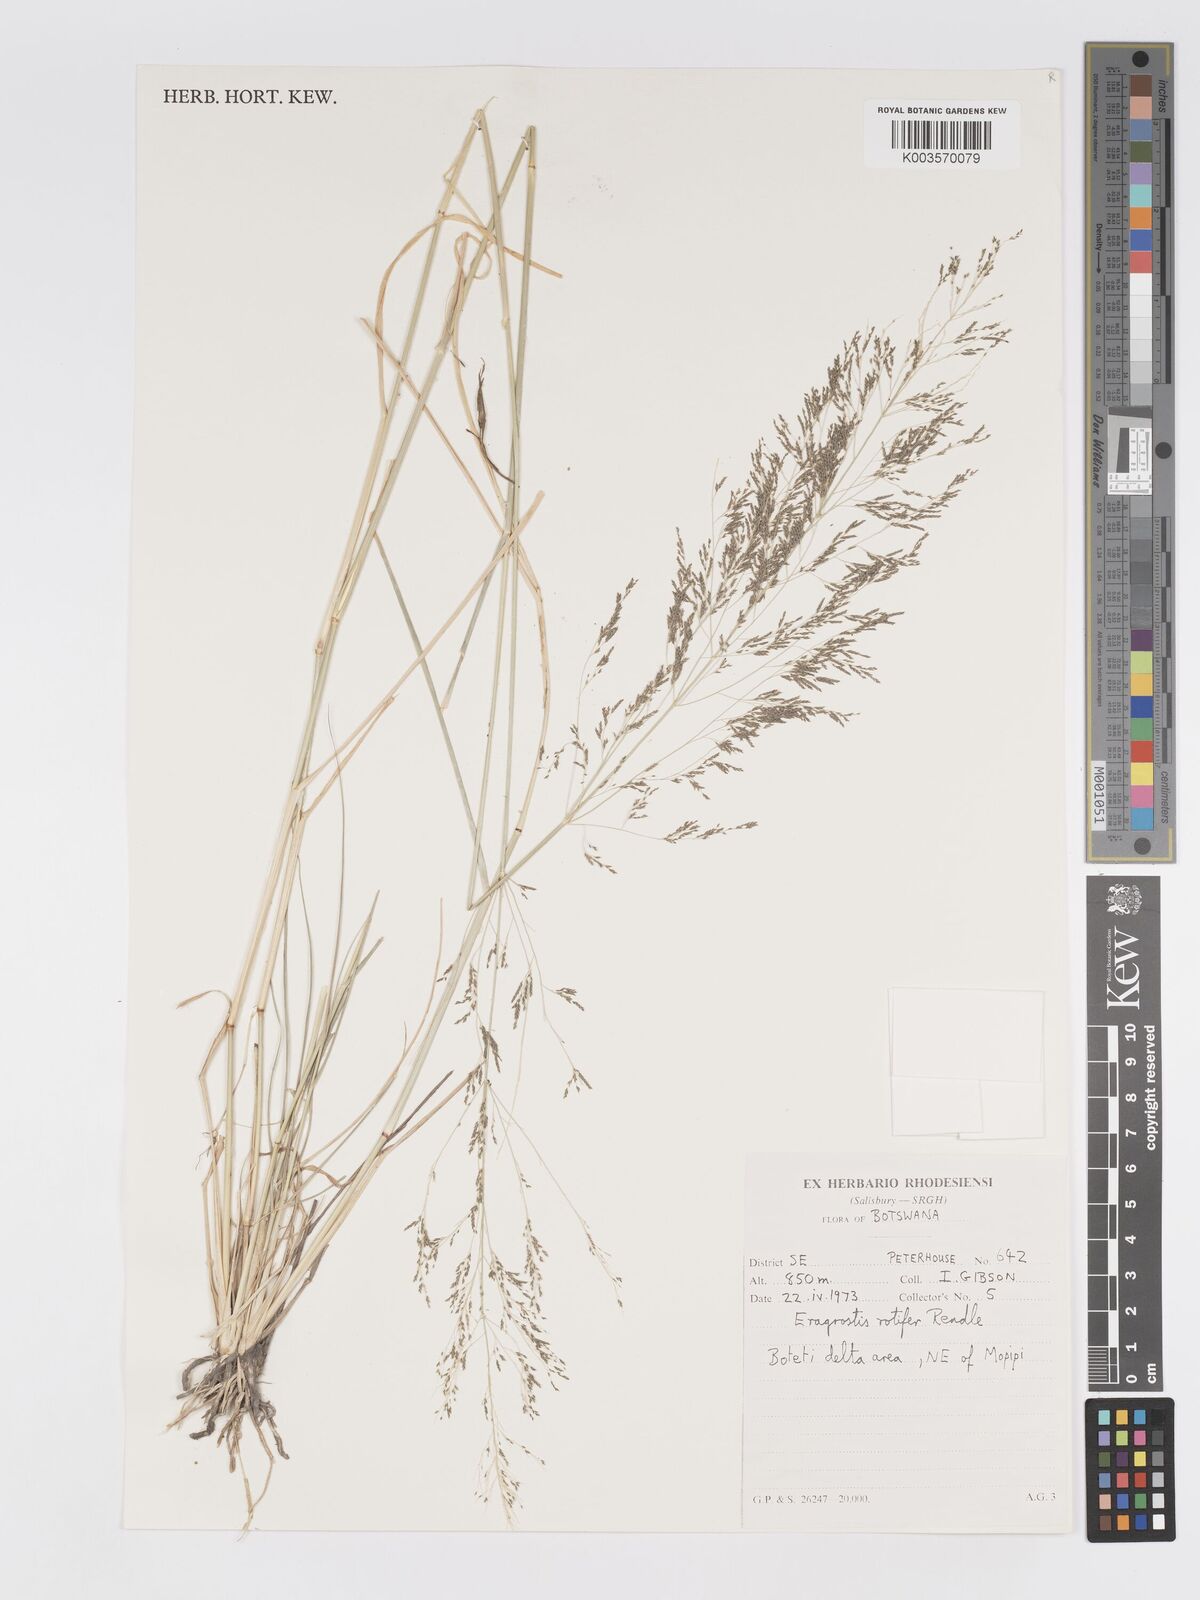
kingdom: Plantae
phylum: Tracheophyta
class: Liliopsida
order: Poales
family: Poaceae
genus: Eragrostis
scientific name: Eragrostis rotifer
